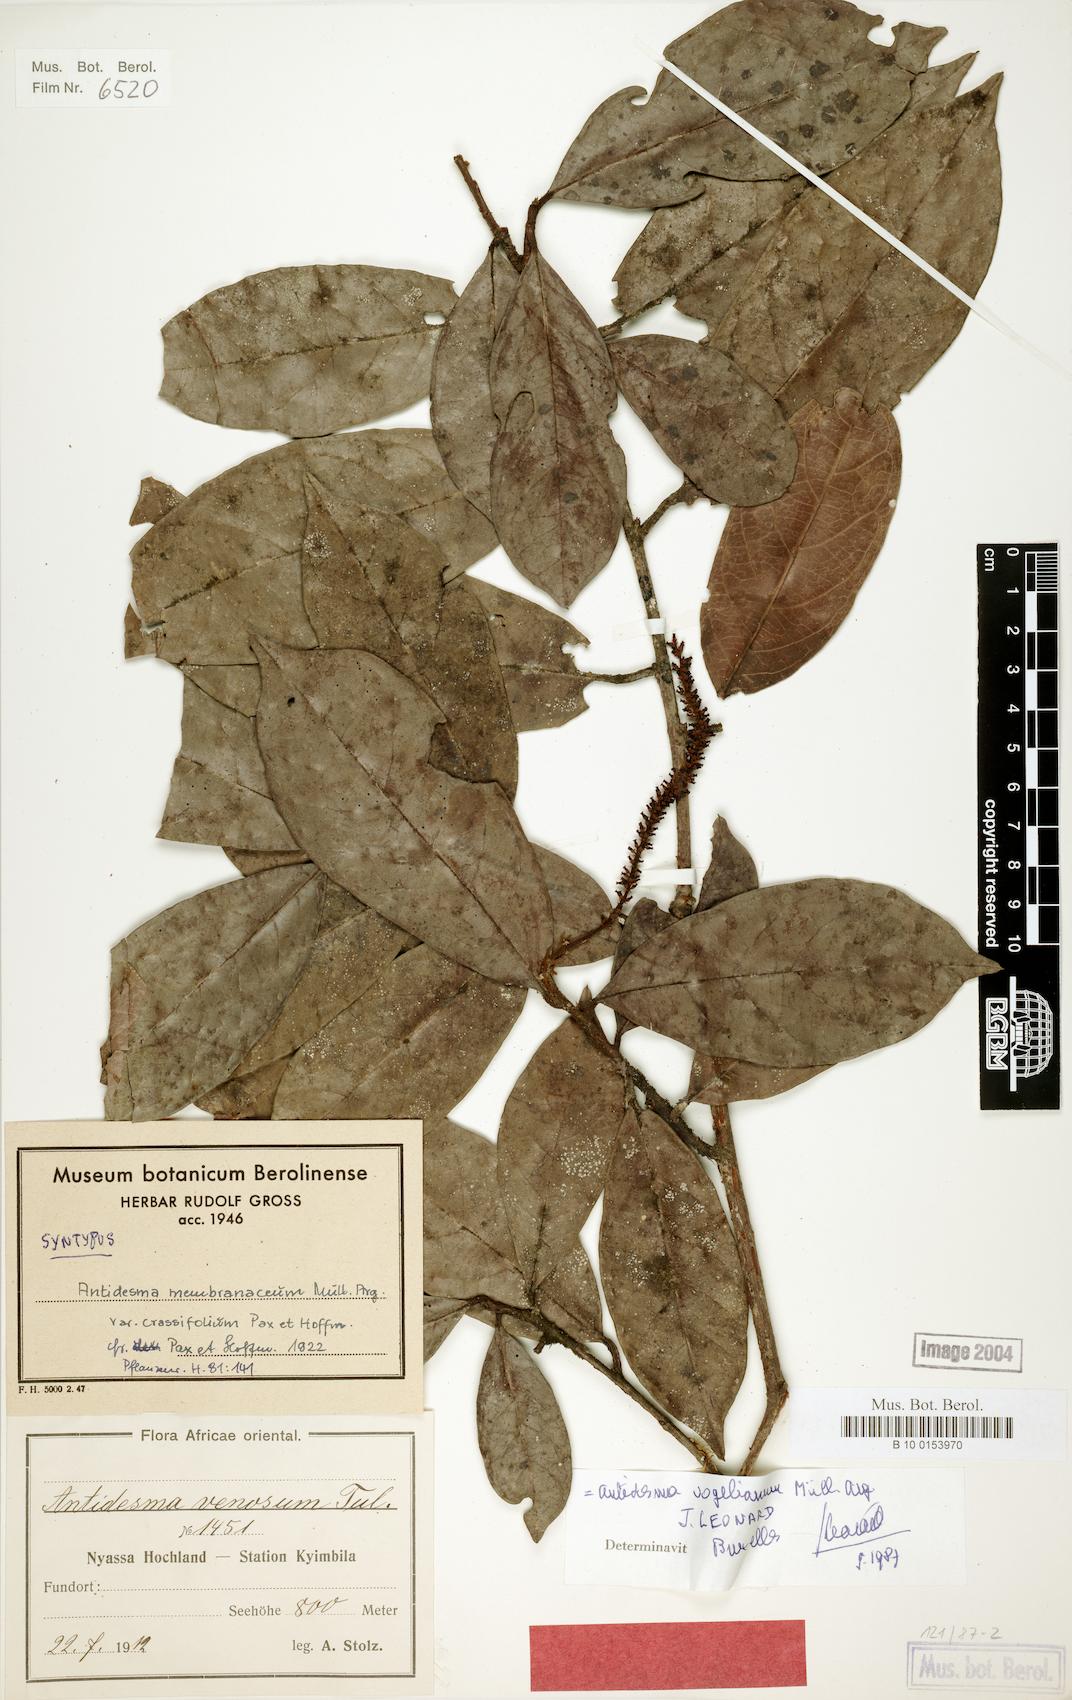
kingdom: Plantae
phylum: Tracheophyta
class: Magnoliopsida
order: Malpighiales
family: Phyllanthaceae
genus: Antidesma
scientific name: Antidesma vogelianum
